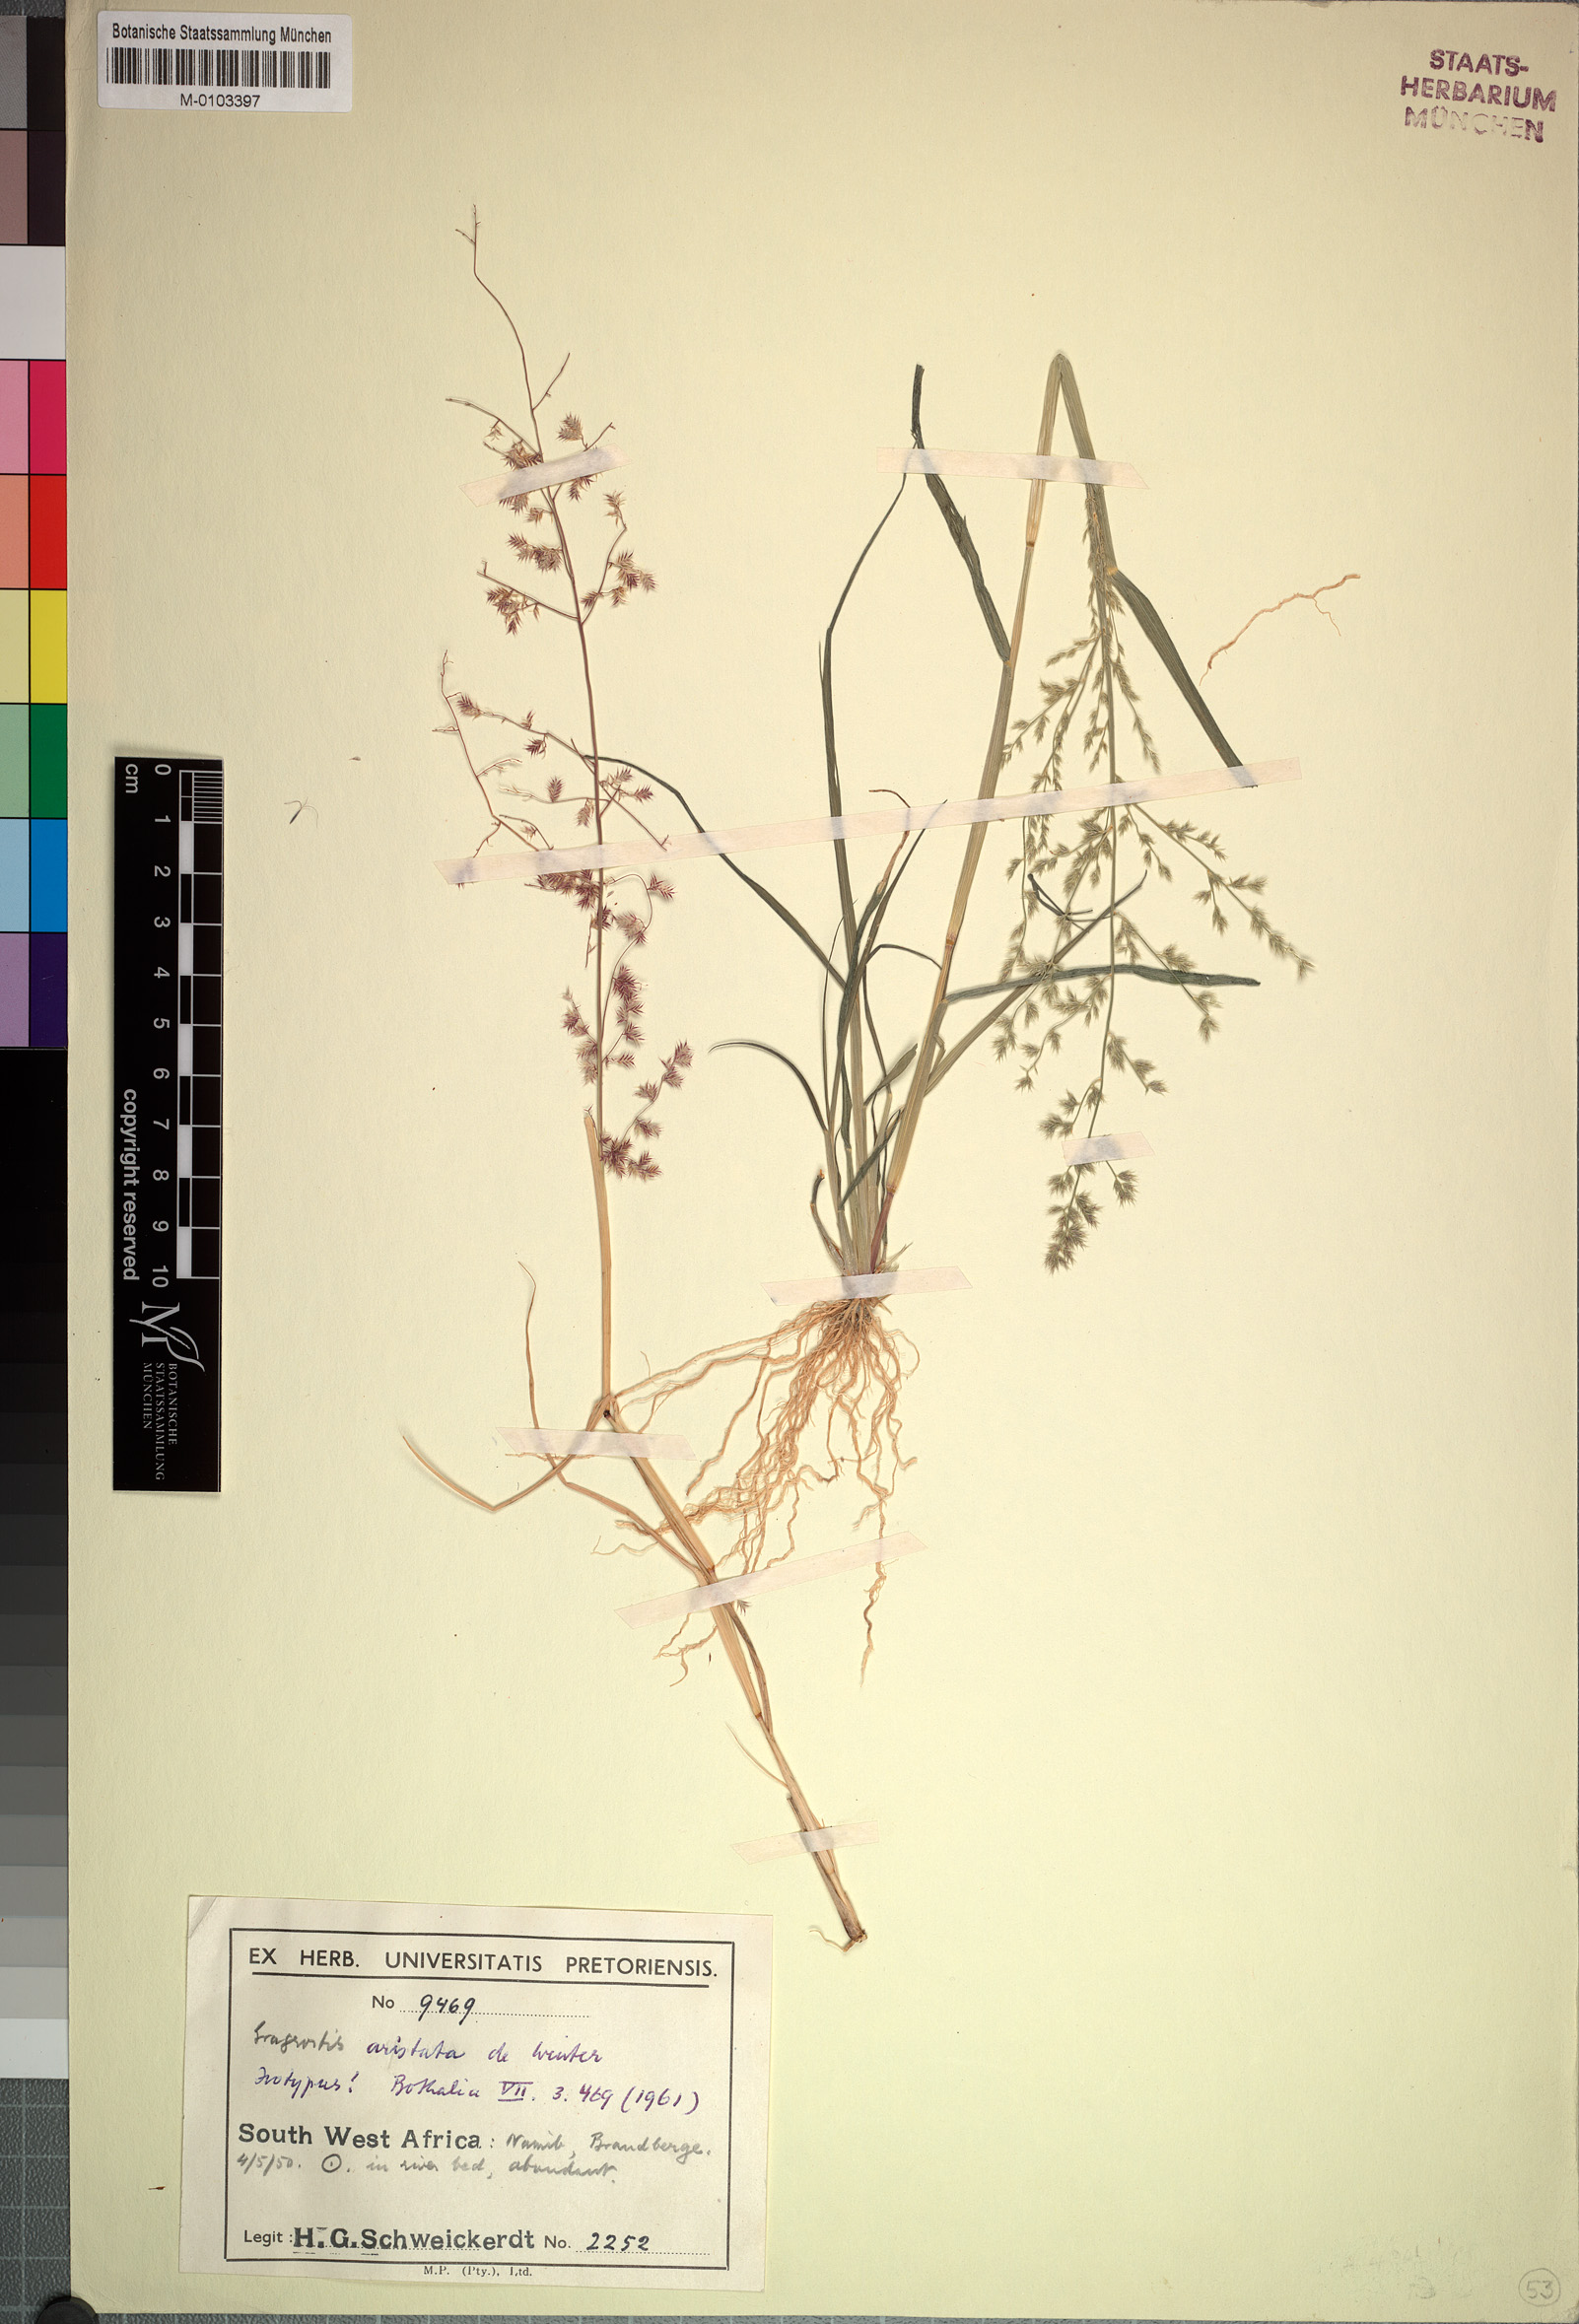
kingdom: Plantae
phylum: Tracheophyta
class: Liliopsida
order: Poales
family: Poaceae
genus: Eragrostis
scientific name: Eragrostis aristata
